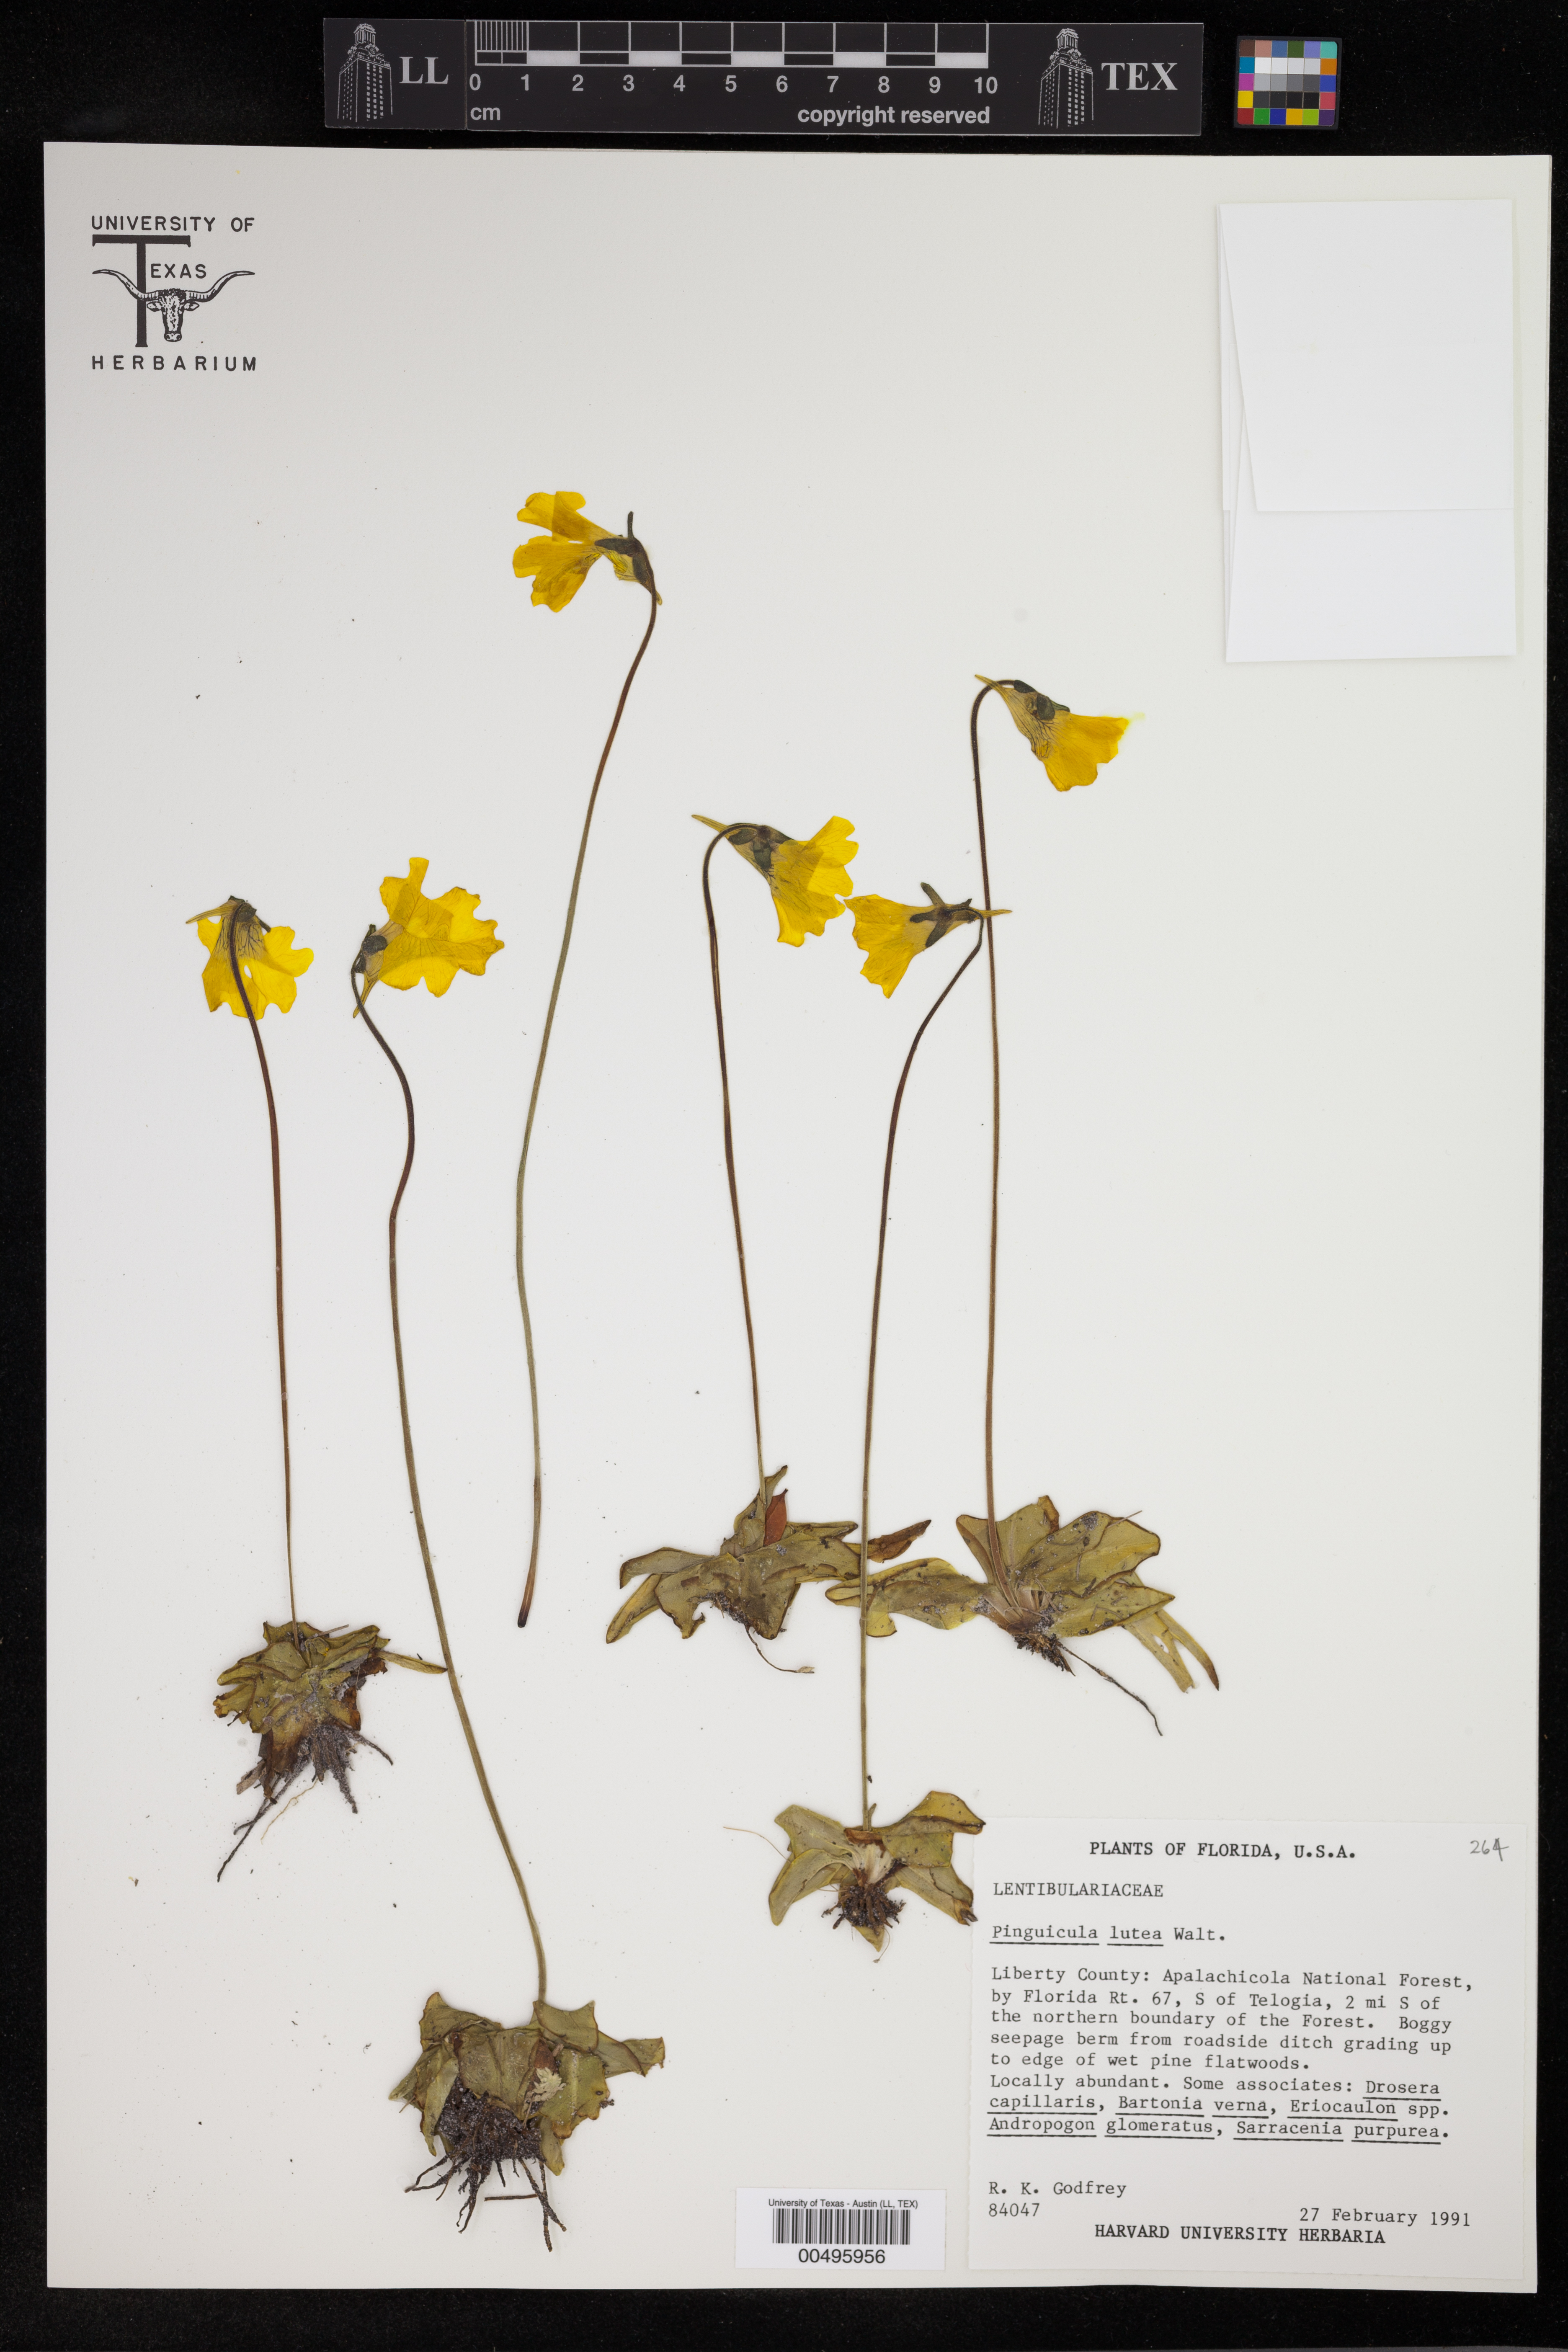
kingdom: Plantae
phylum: Tracheophyta
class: Magnoliopsida
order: Lamiales
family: Lentibulariaceae
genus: Pinguicula
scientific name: Pinguicula lutea
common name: Yellow butterwort
